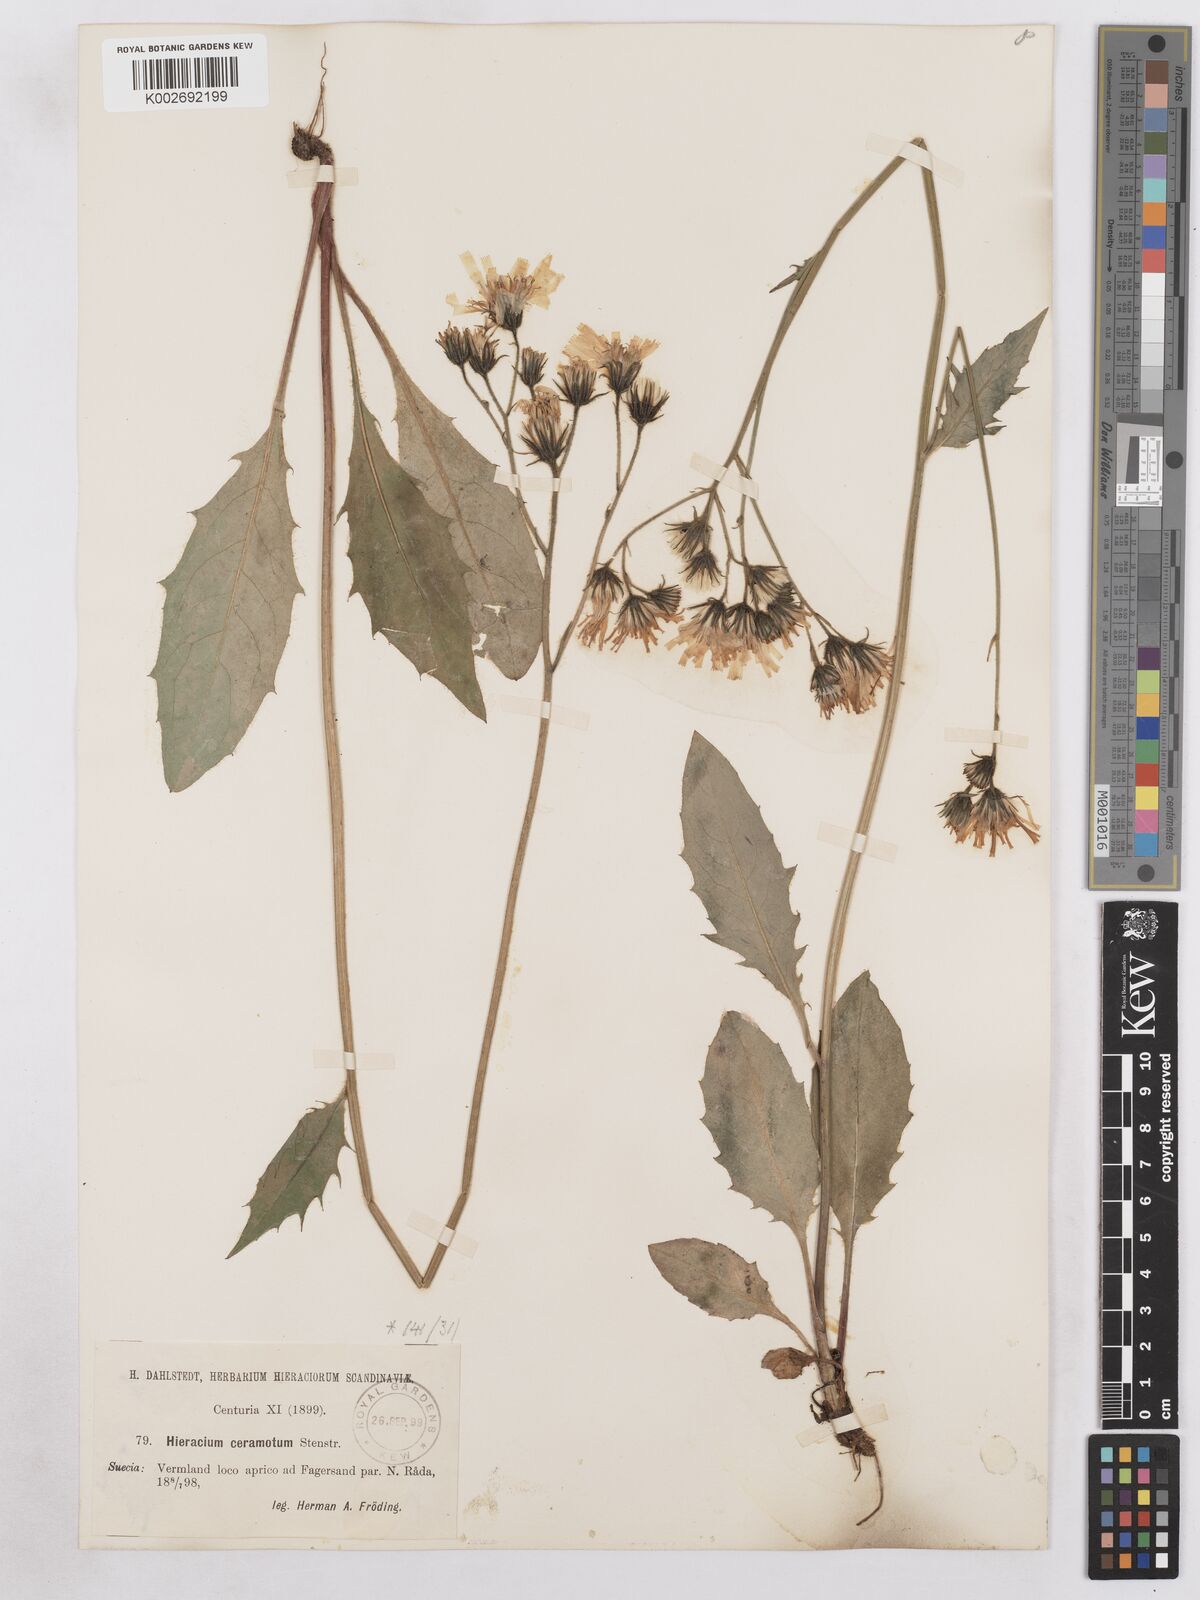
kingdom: Plantae
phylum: Tracheophyta
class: Magnoliopsida
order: Asterales
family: Asteraceae
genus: Hieracium
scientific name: Hieracium diaphanoides
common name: Fine-bracted hawkweed
